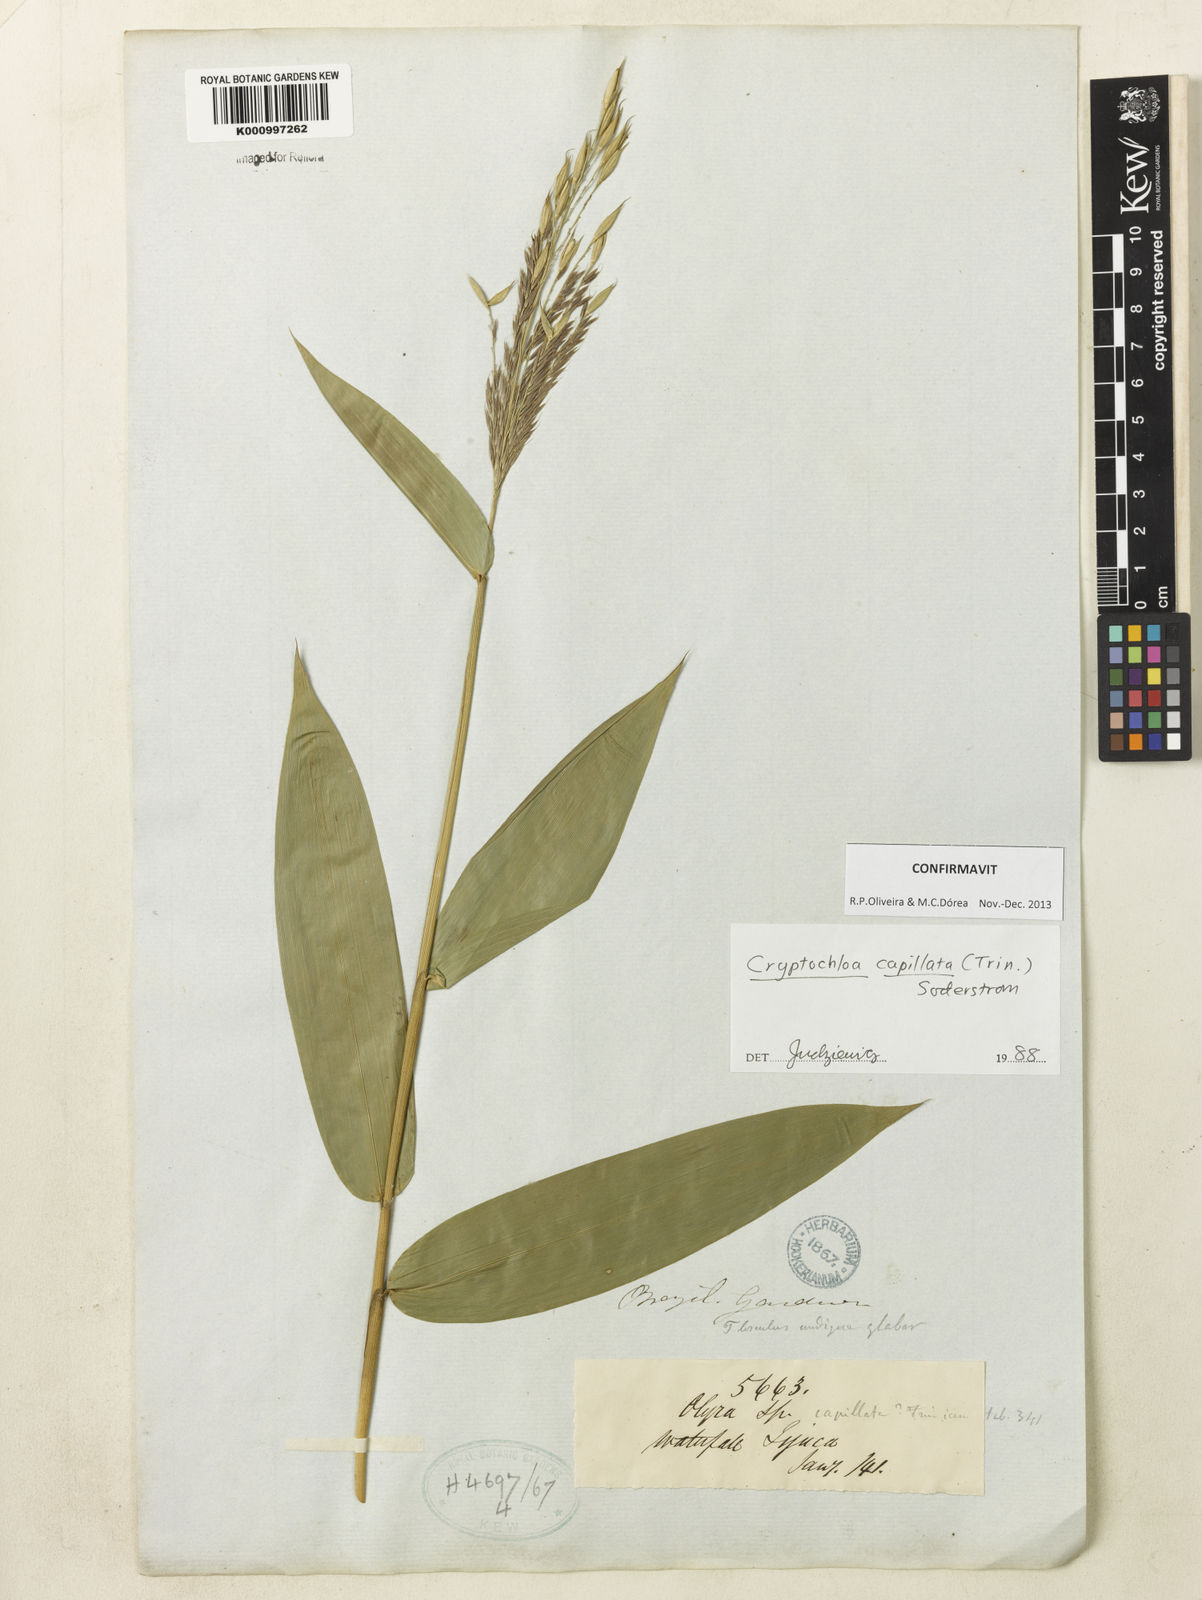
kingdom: Plantae
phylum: Tracheophyta
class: Liliopsida
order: Poales
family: Poaceae
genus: Cryptochloa
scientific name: Cryptochloa capillata
